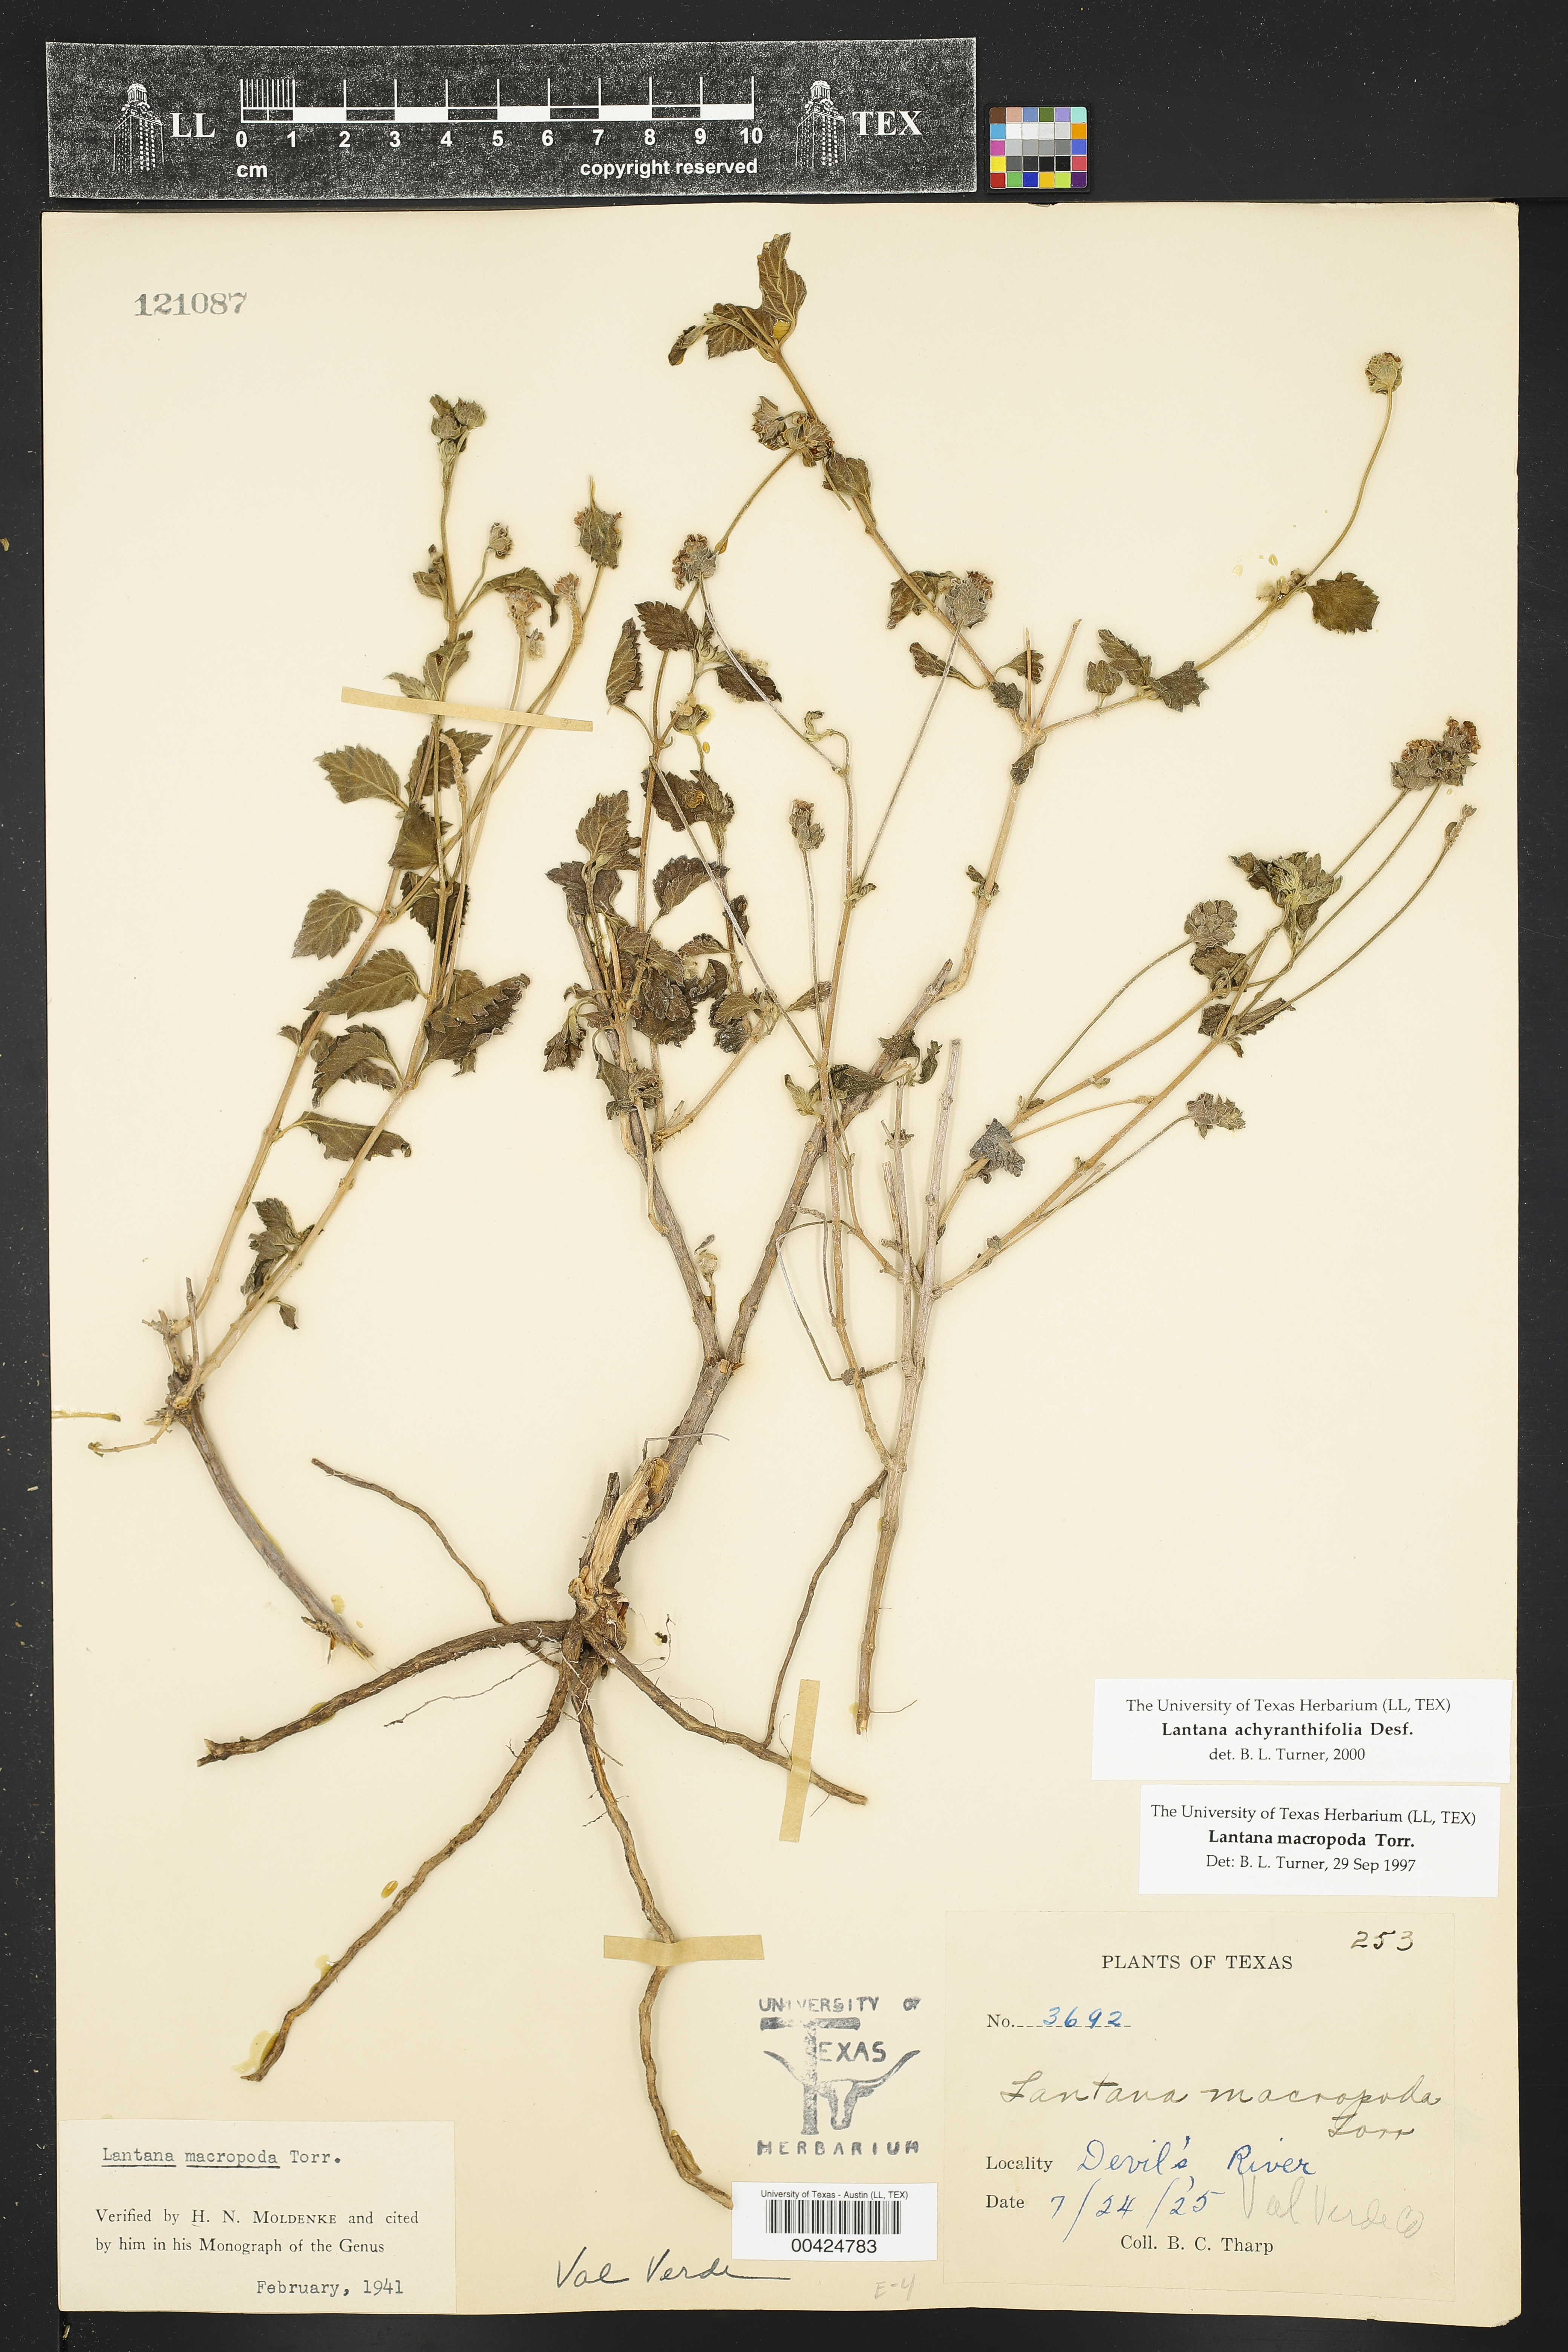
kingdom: Plantae
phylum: Tracheophyta
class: Magnoliopsida
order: Lamiales
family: Verbenaceae
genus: Lantana
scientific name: Lantana achyranthifolia
